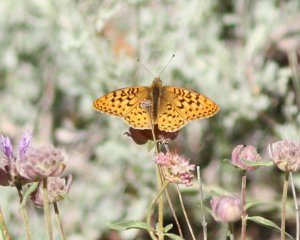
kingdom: Animalia
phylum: Arthropoda
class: Insecta
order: Lepidoptera
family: Nymphalidae
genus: Speyeria
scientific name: Speyeria egleis
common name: Great Basin Fritillary
